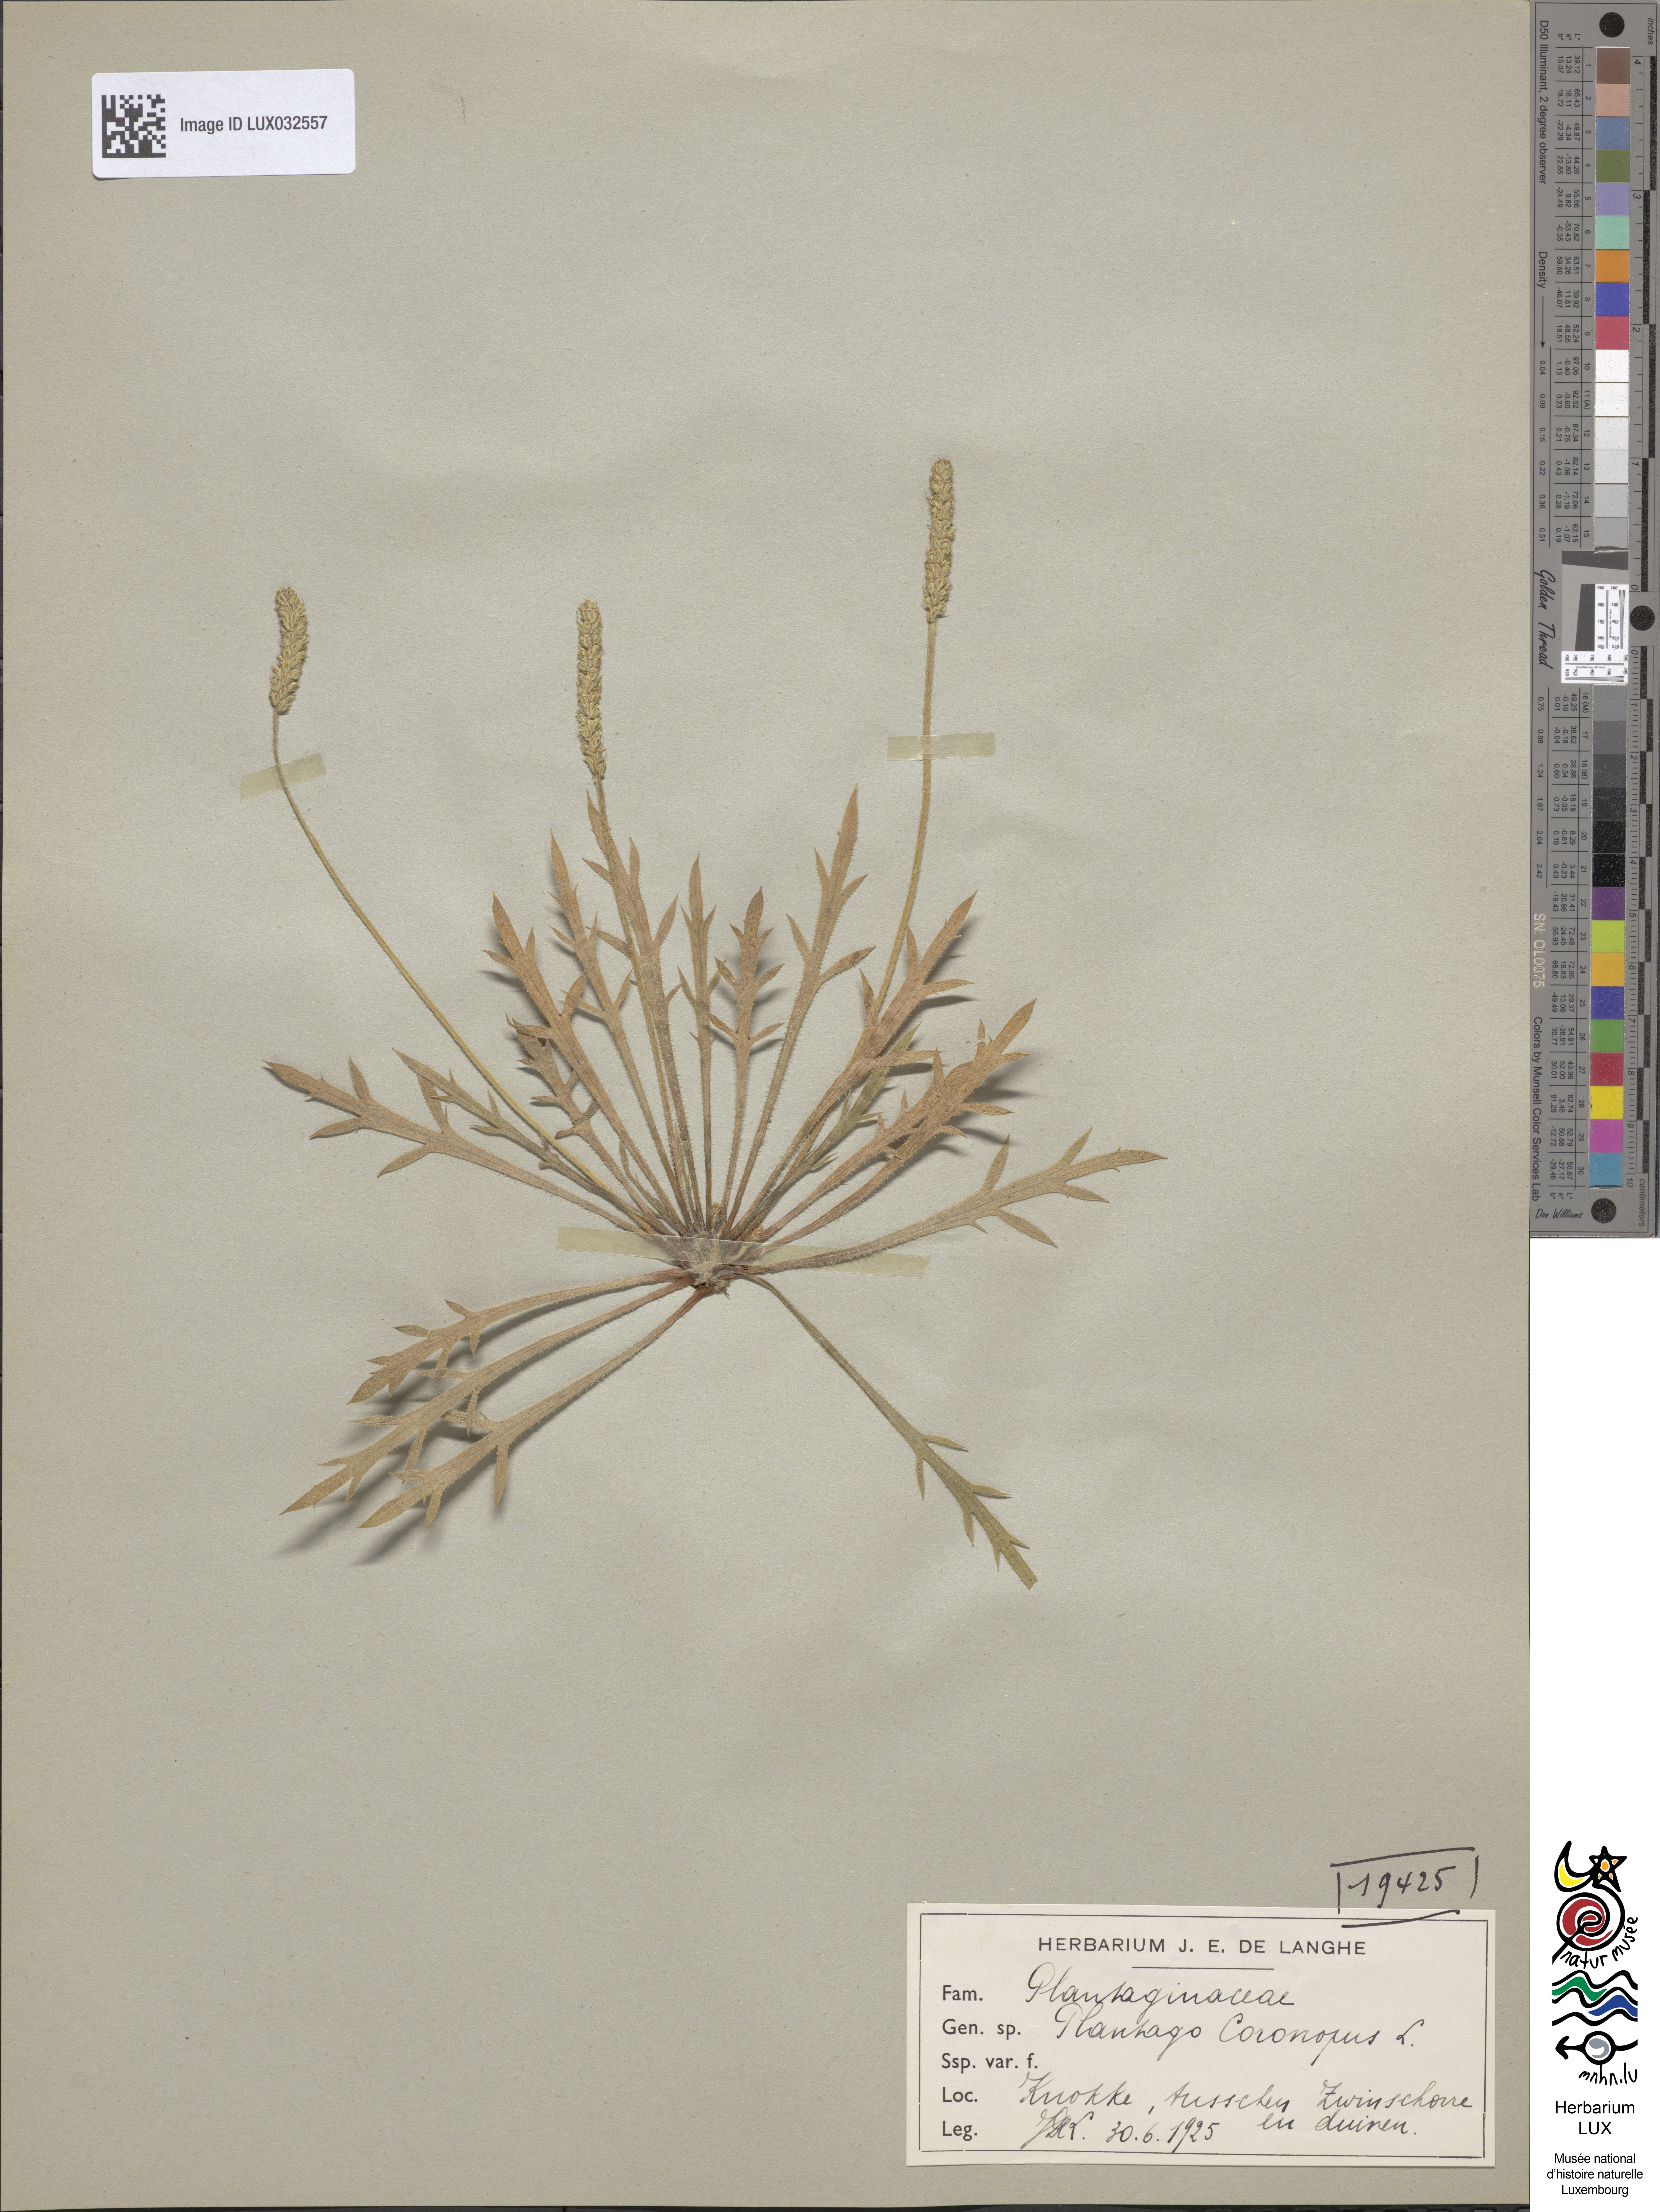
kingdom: Plantae
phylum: Tracheophyta
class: Magnoliopsida
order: Lamiales
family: Plantaginaceae
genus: Plantago
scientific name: Plantago coronopus
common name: Buck's-horn plantain
